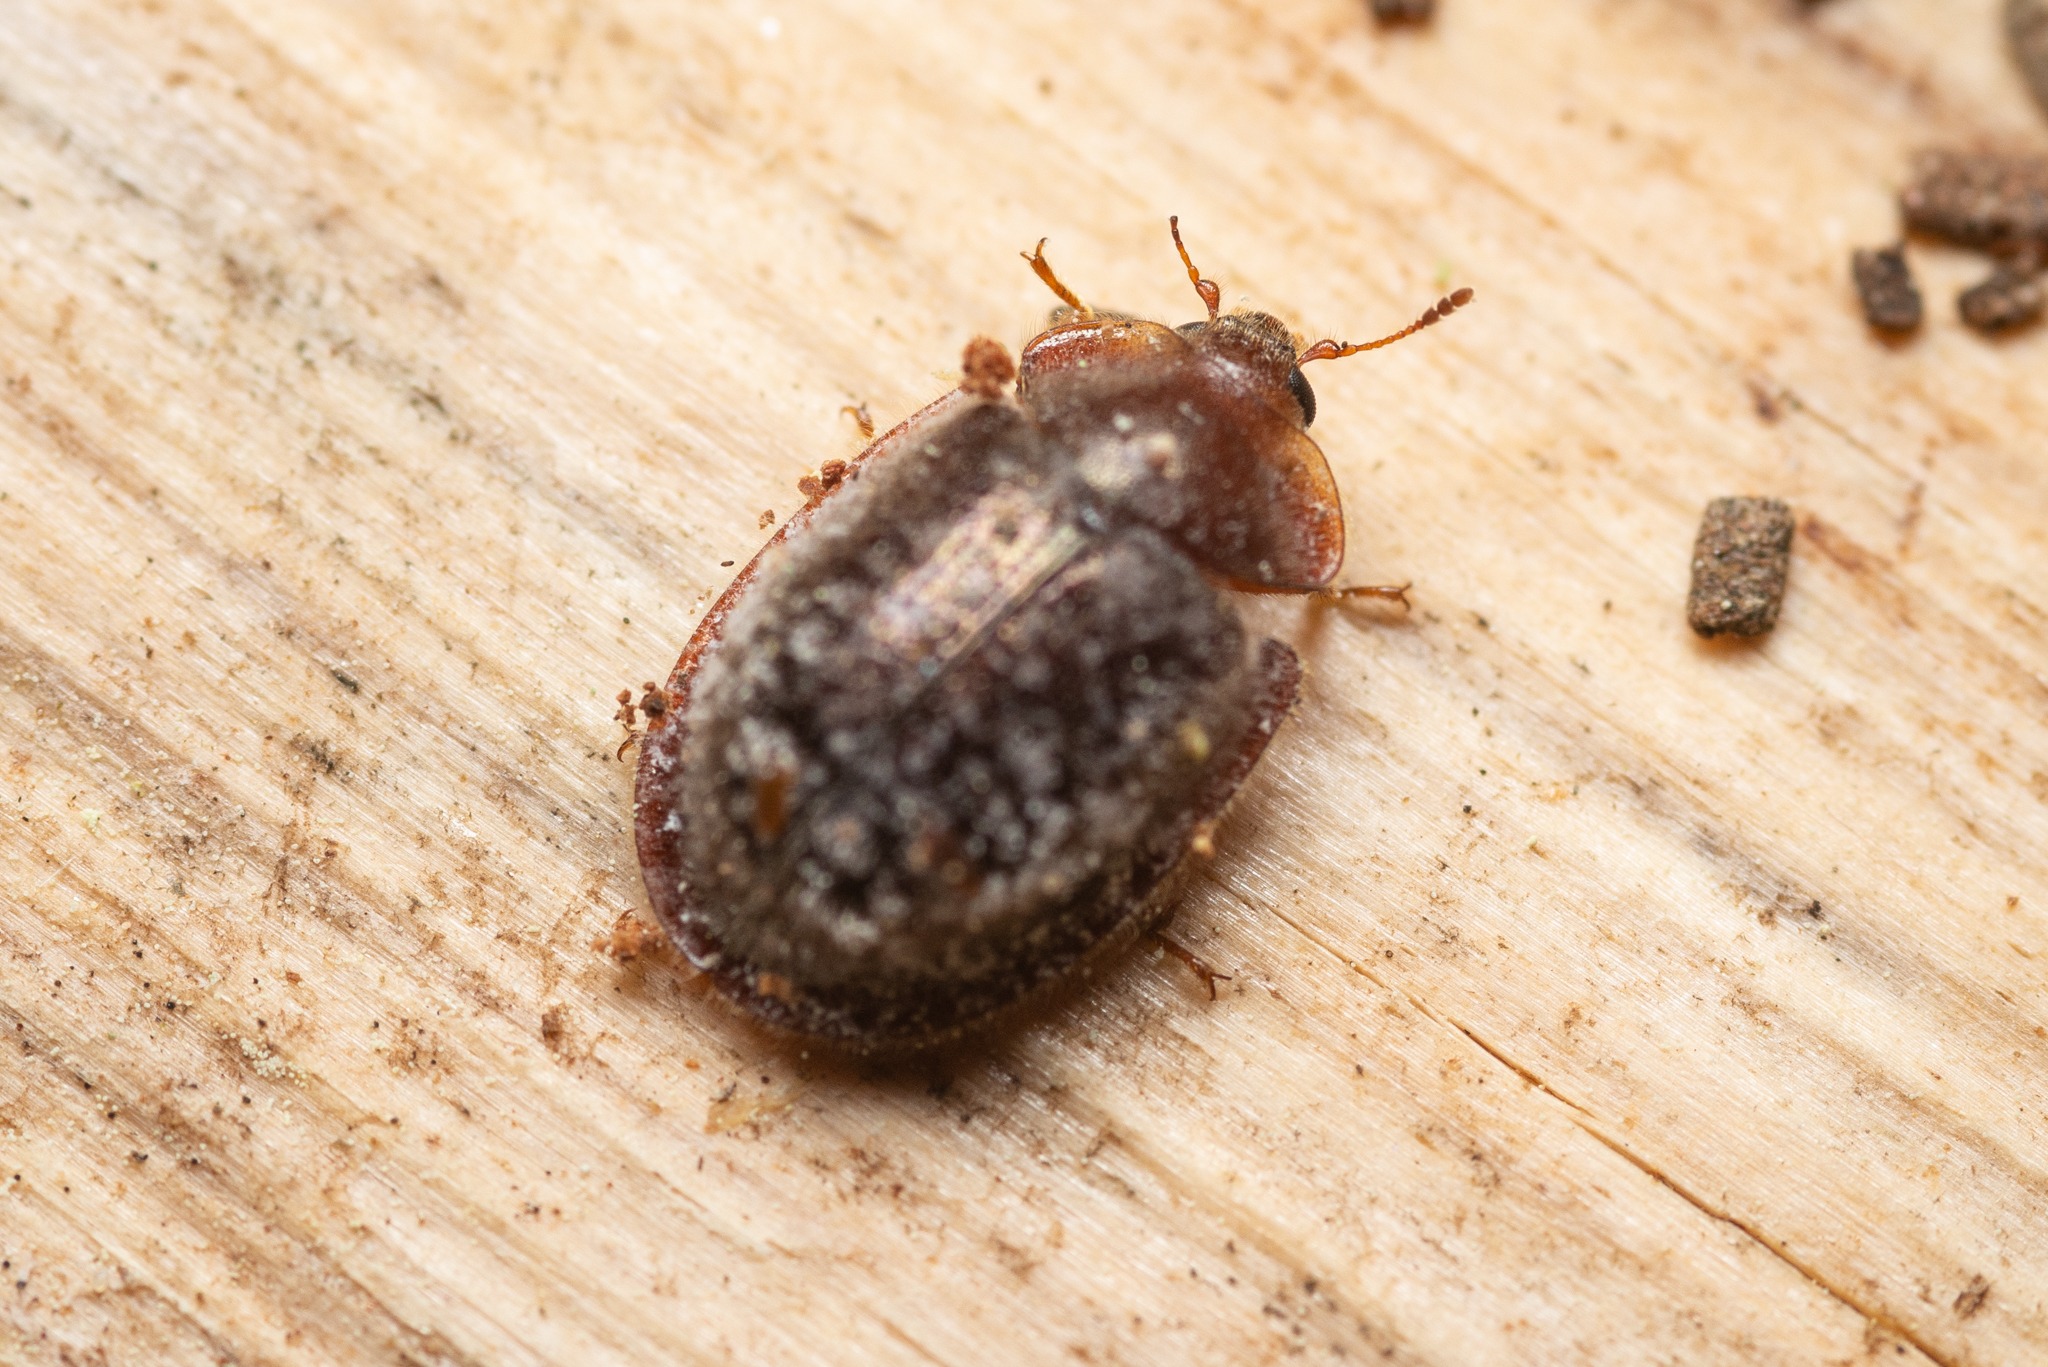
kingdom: Animalia
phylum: Arthropoda
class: Insecta
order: Coleoptera
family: Trogossitidae
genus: Thymalus
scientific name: Thymalus limbatus
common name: Falsk skjoldbille
